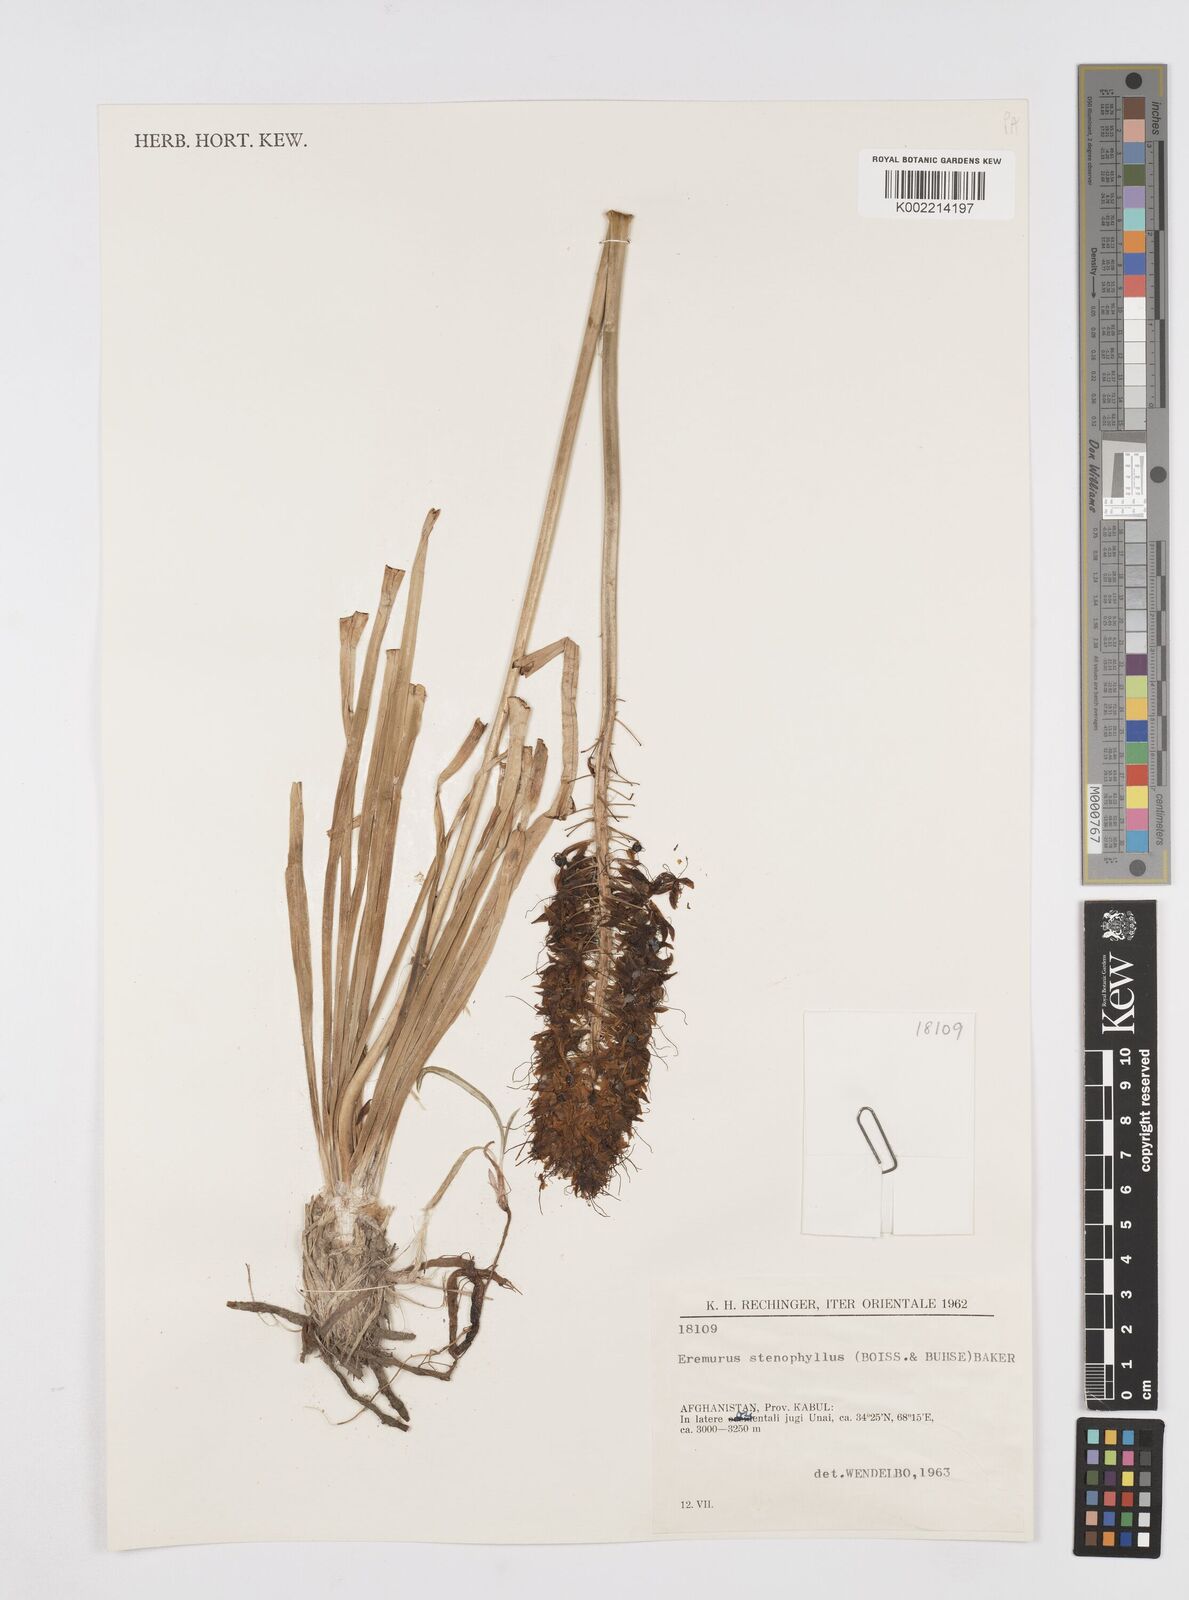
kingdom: Plantae
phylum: Tracheophyta
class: Liliopsida
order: Asparagales
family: Asphodelaceae
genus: Eremurus
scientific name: Eremurus stenophyllus
